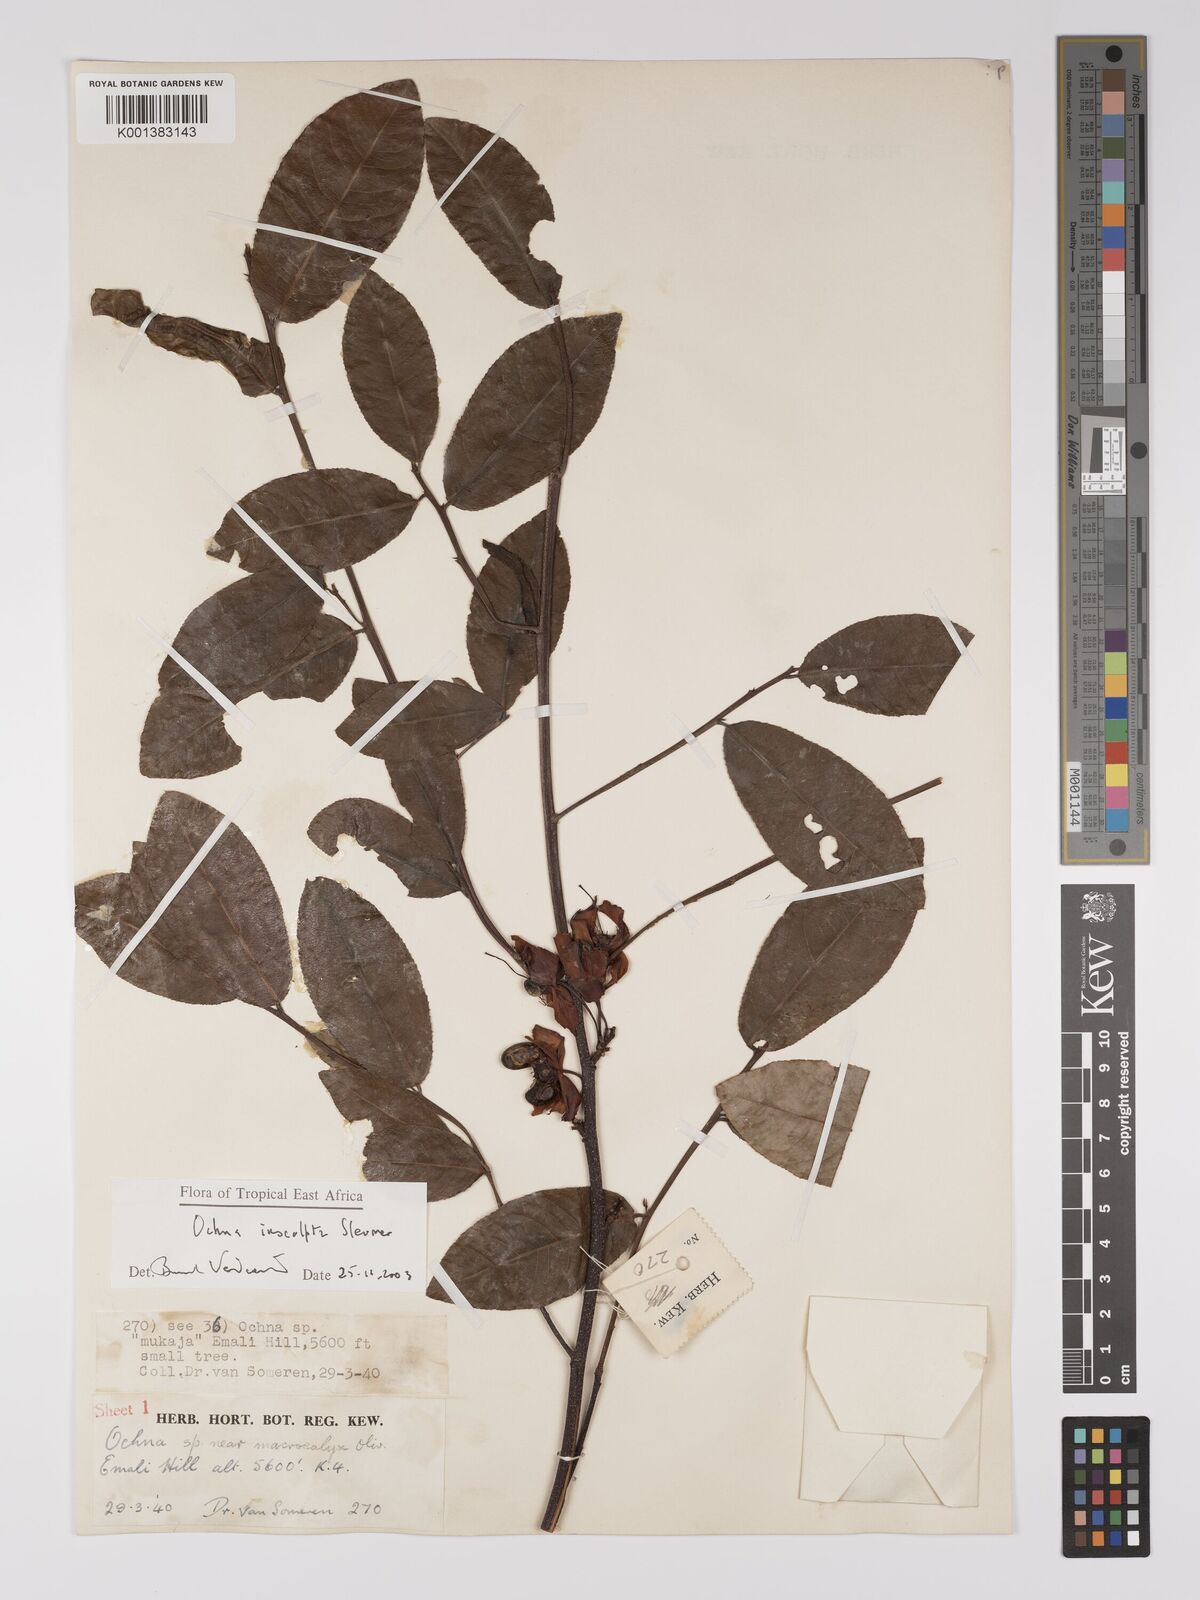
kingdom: Plantae
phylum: Tracheophyta
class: Magnoliopsida
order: Malpighiales
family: Ochnaceae
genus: Ochna
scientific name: Ochna
